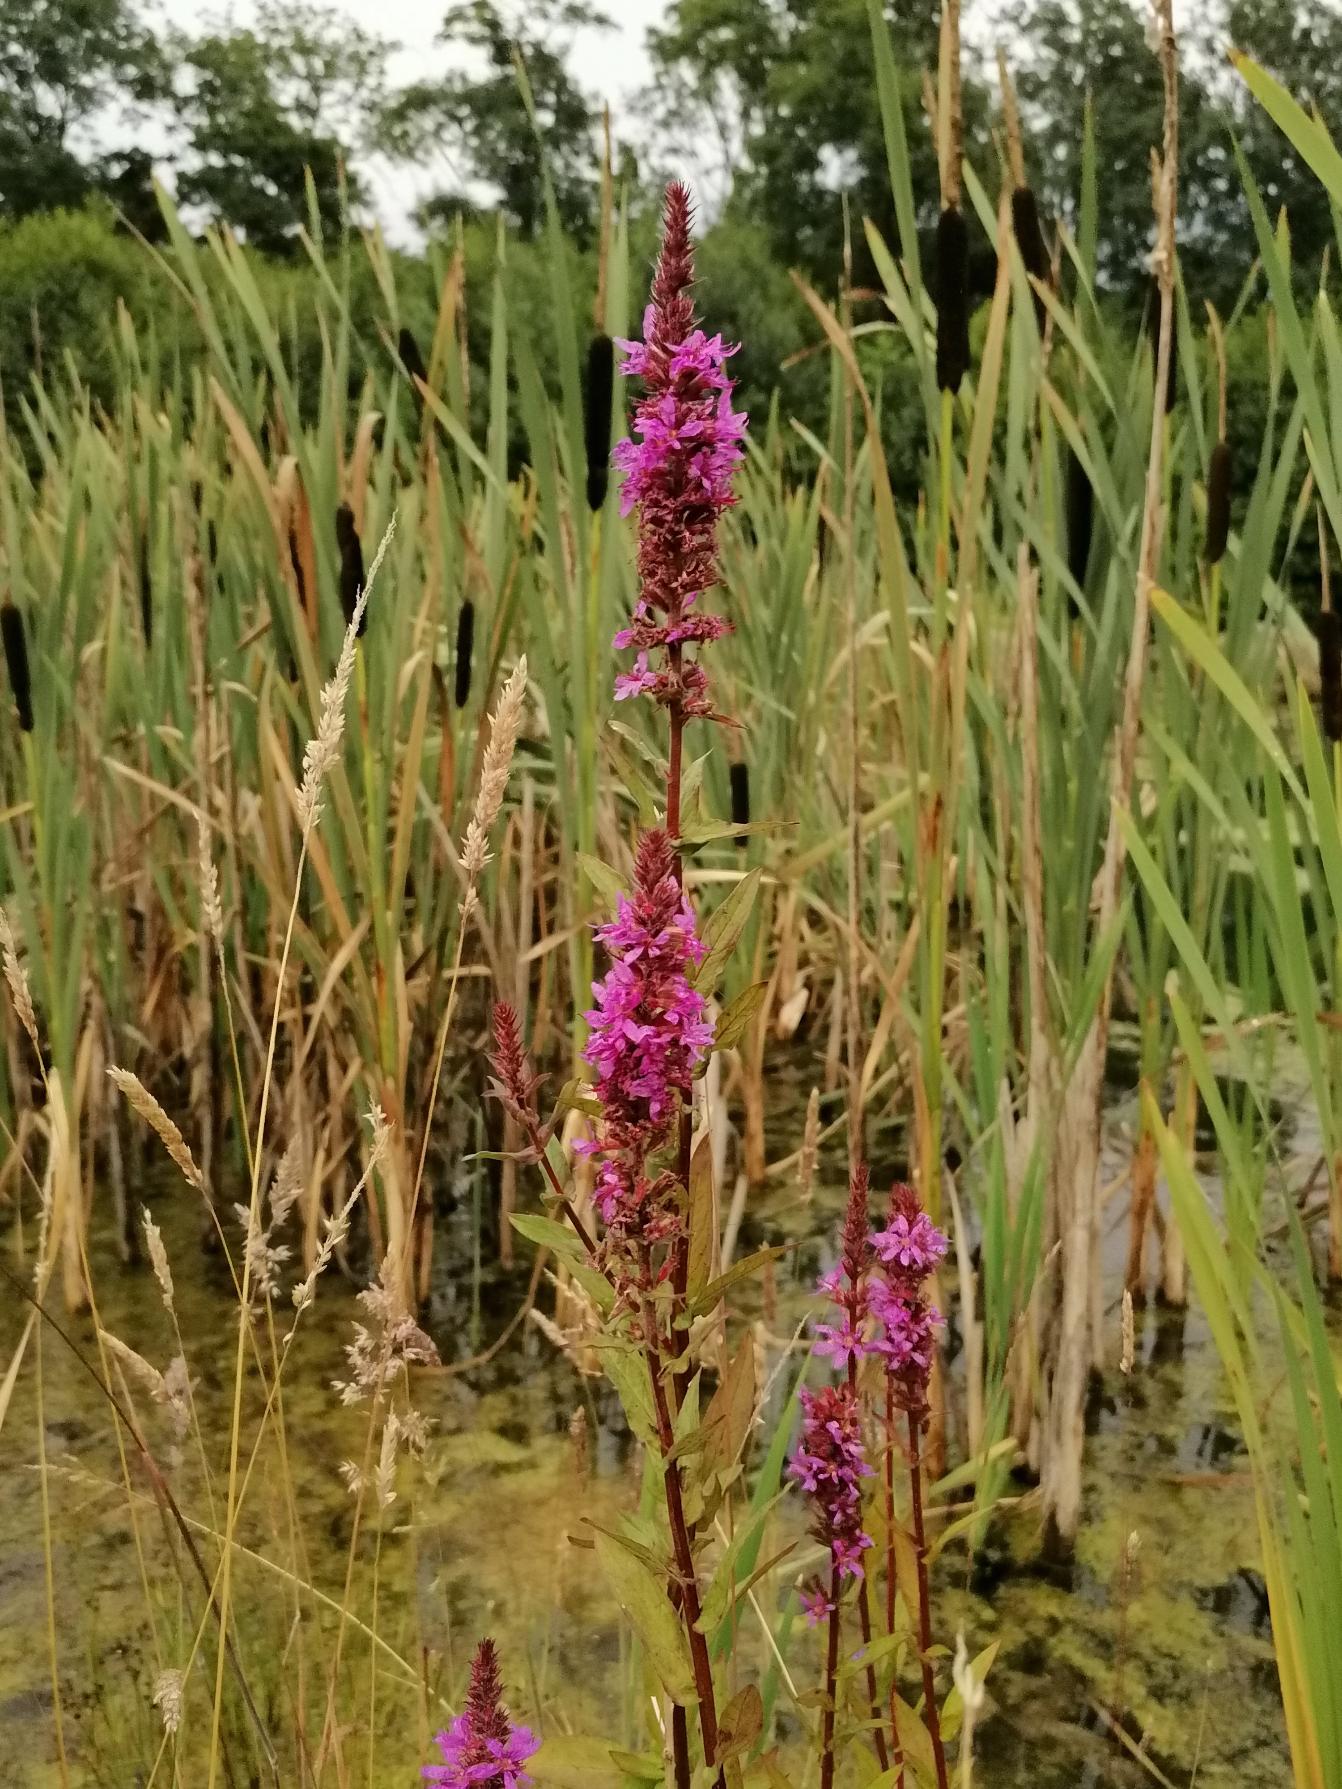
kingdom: Plantae
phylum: Tracheophyta
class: Magnoliopsida
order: Myrtales
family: Lythraceae
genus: Lythrum
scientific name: Lythrum salicaria
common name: Kattehale
